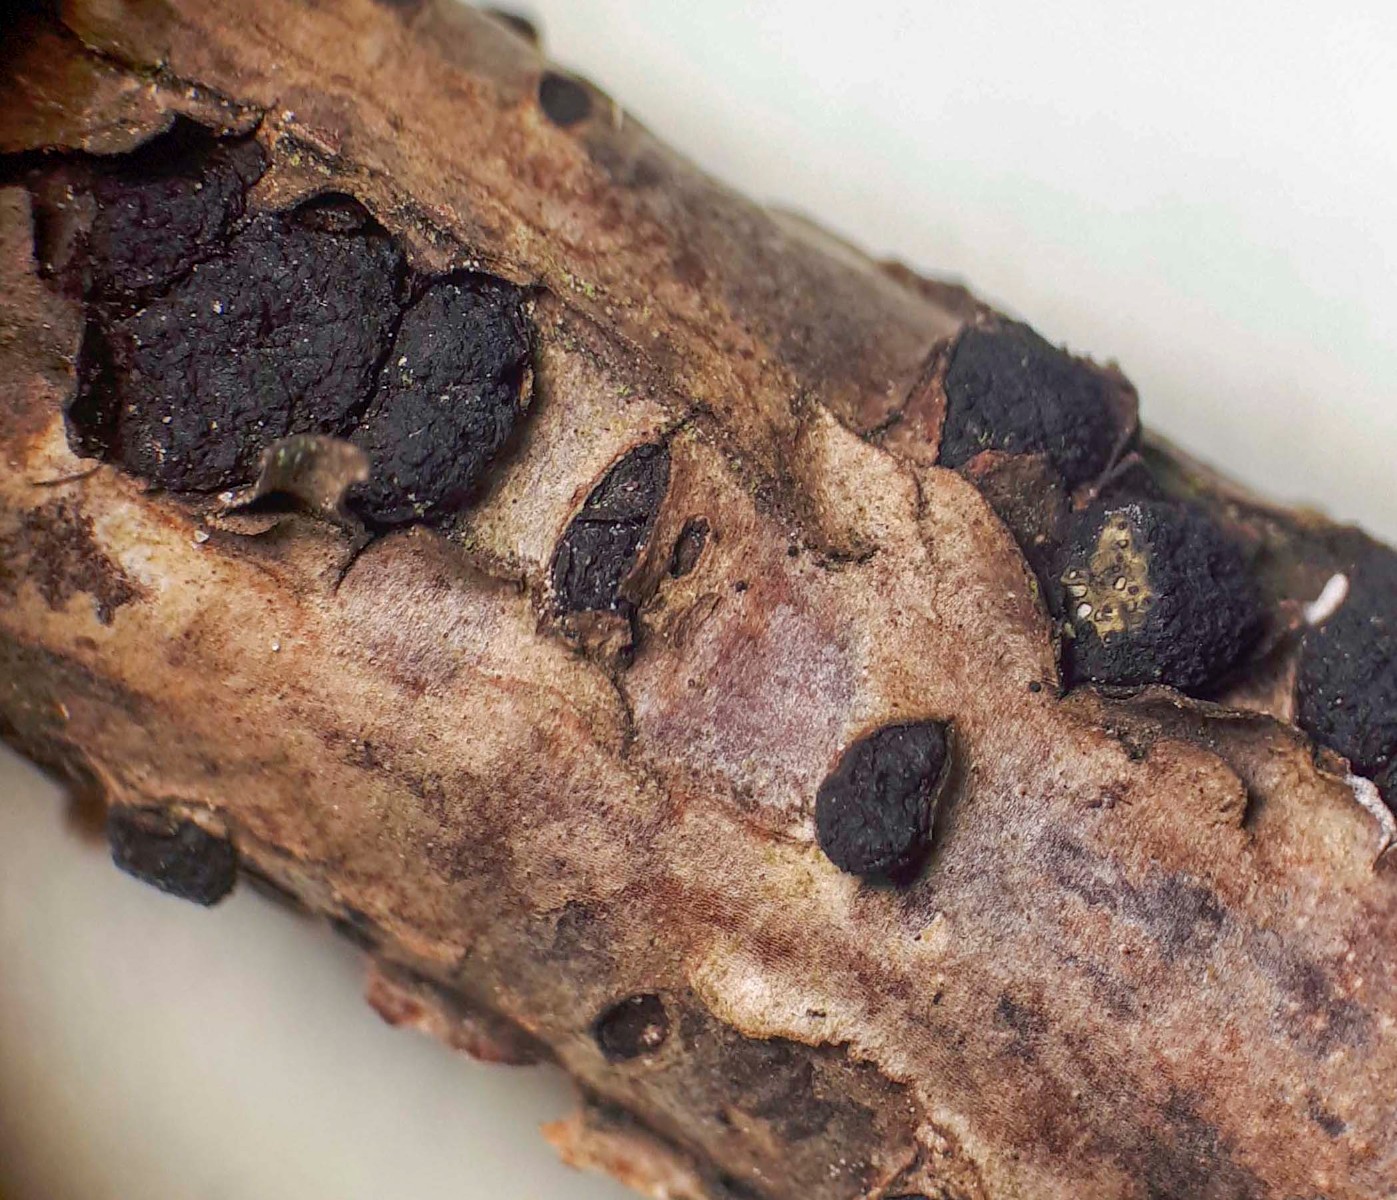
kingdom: Fungi
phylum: Ascomycota
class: Sordariomycetes
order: Xylariales
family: Diatrypaceae
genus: Eutypa
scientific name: Eutypa flavovirens
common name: grønkødet kulskorpe
